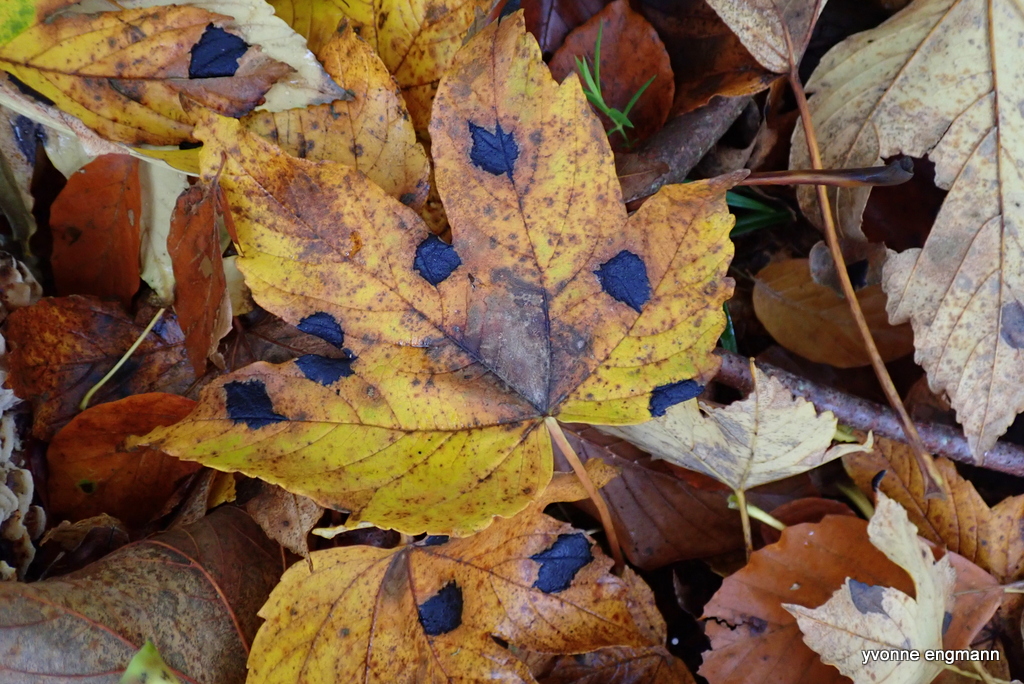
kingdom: Fungi
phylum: Ascomycota
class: Leotiomycetes
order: Rhytismatales
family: Rhytismataceae
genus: Rhytisma
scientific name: Rhytisma acerinum
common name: ahorn-rynkeplet
